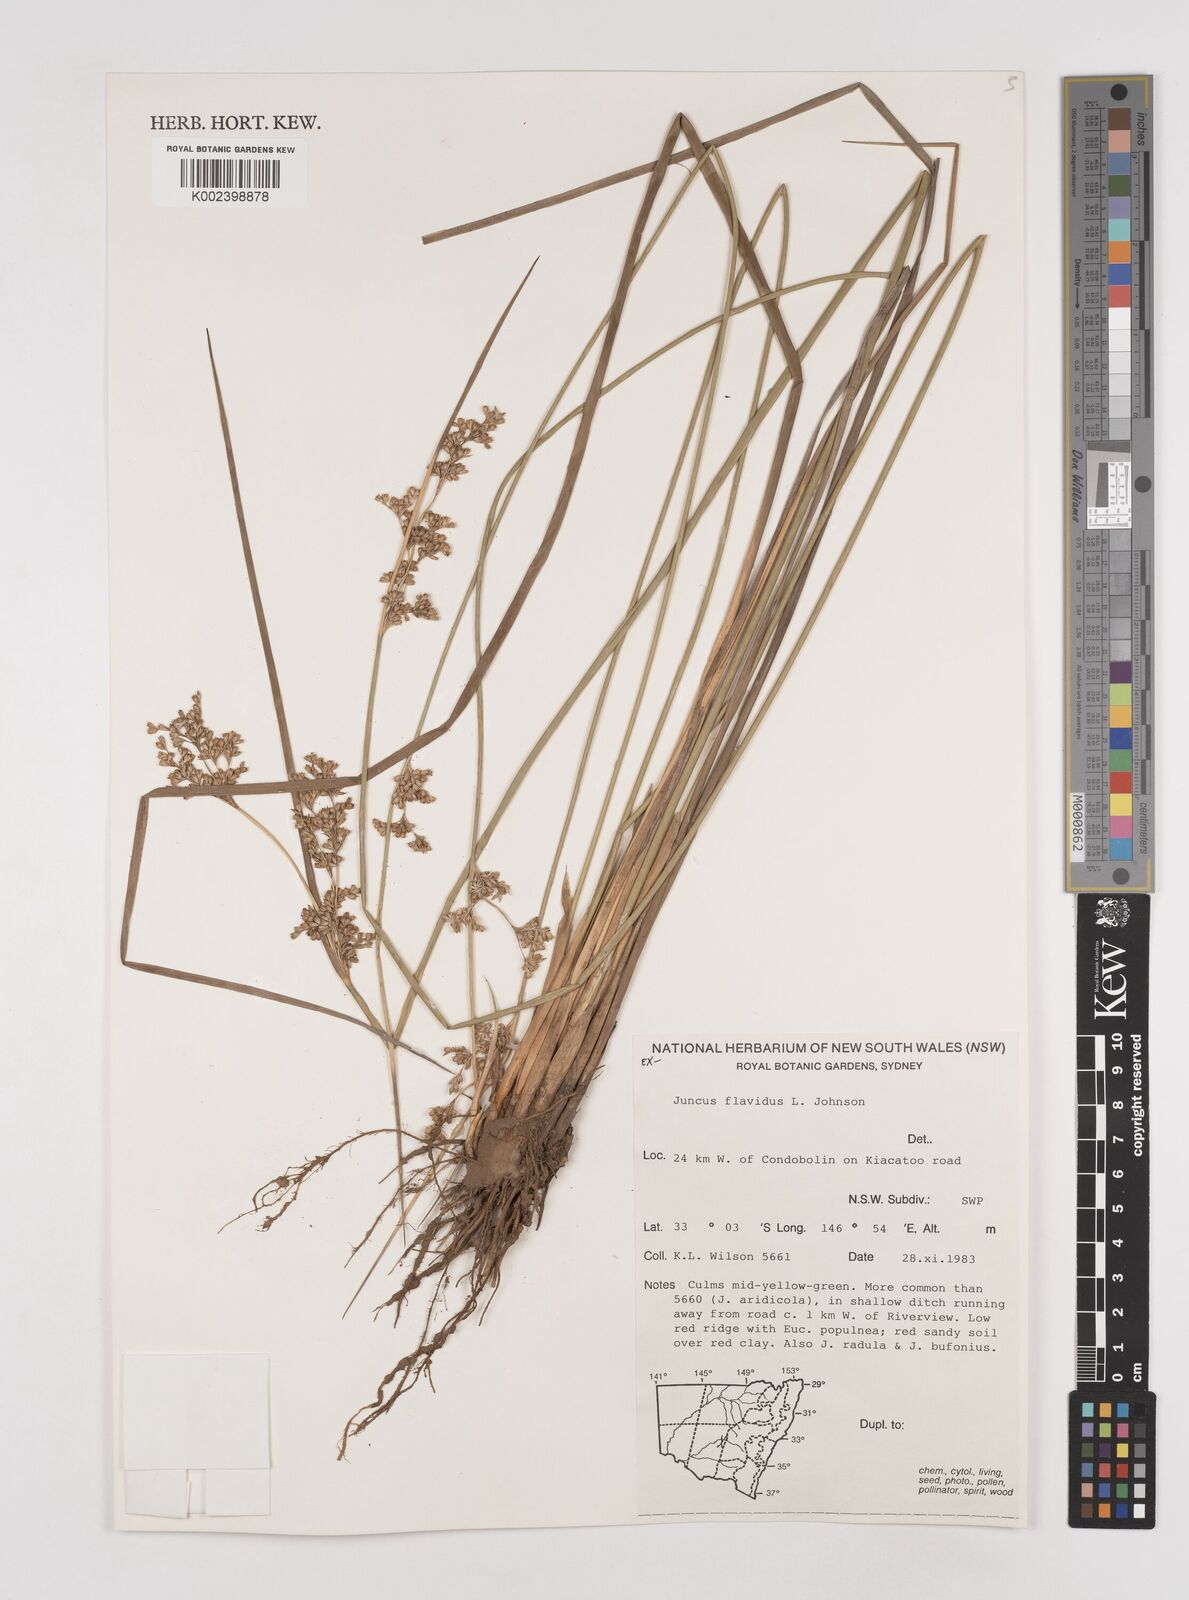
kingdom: Plantae
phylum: Tracheophyta
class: Liliopsida
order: Poales
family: Juncaceae
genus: Juncus
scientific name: Juncus flavidus
